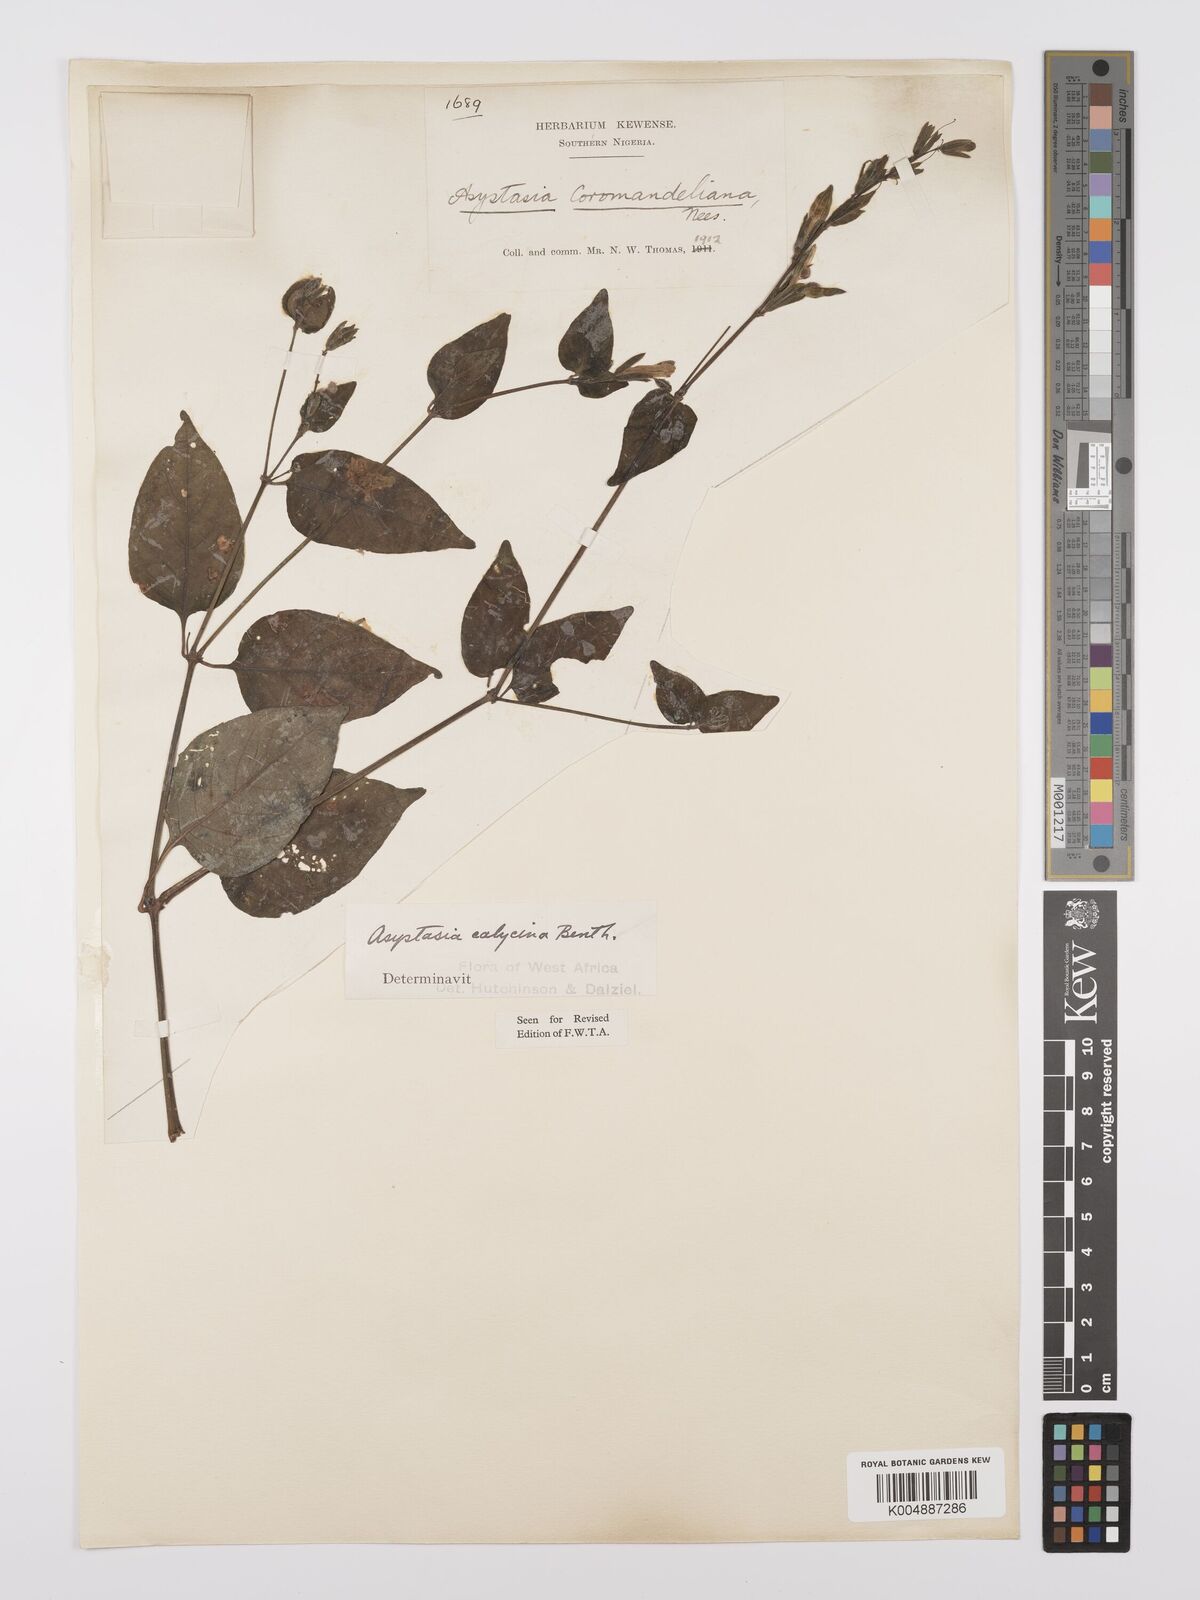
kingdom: Plantae
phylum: Tracheophyta
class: Magnoliopsida
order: Lamiales
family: Acanthaceae
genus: Asystasia
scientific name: Asystasia buettneri
